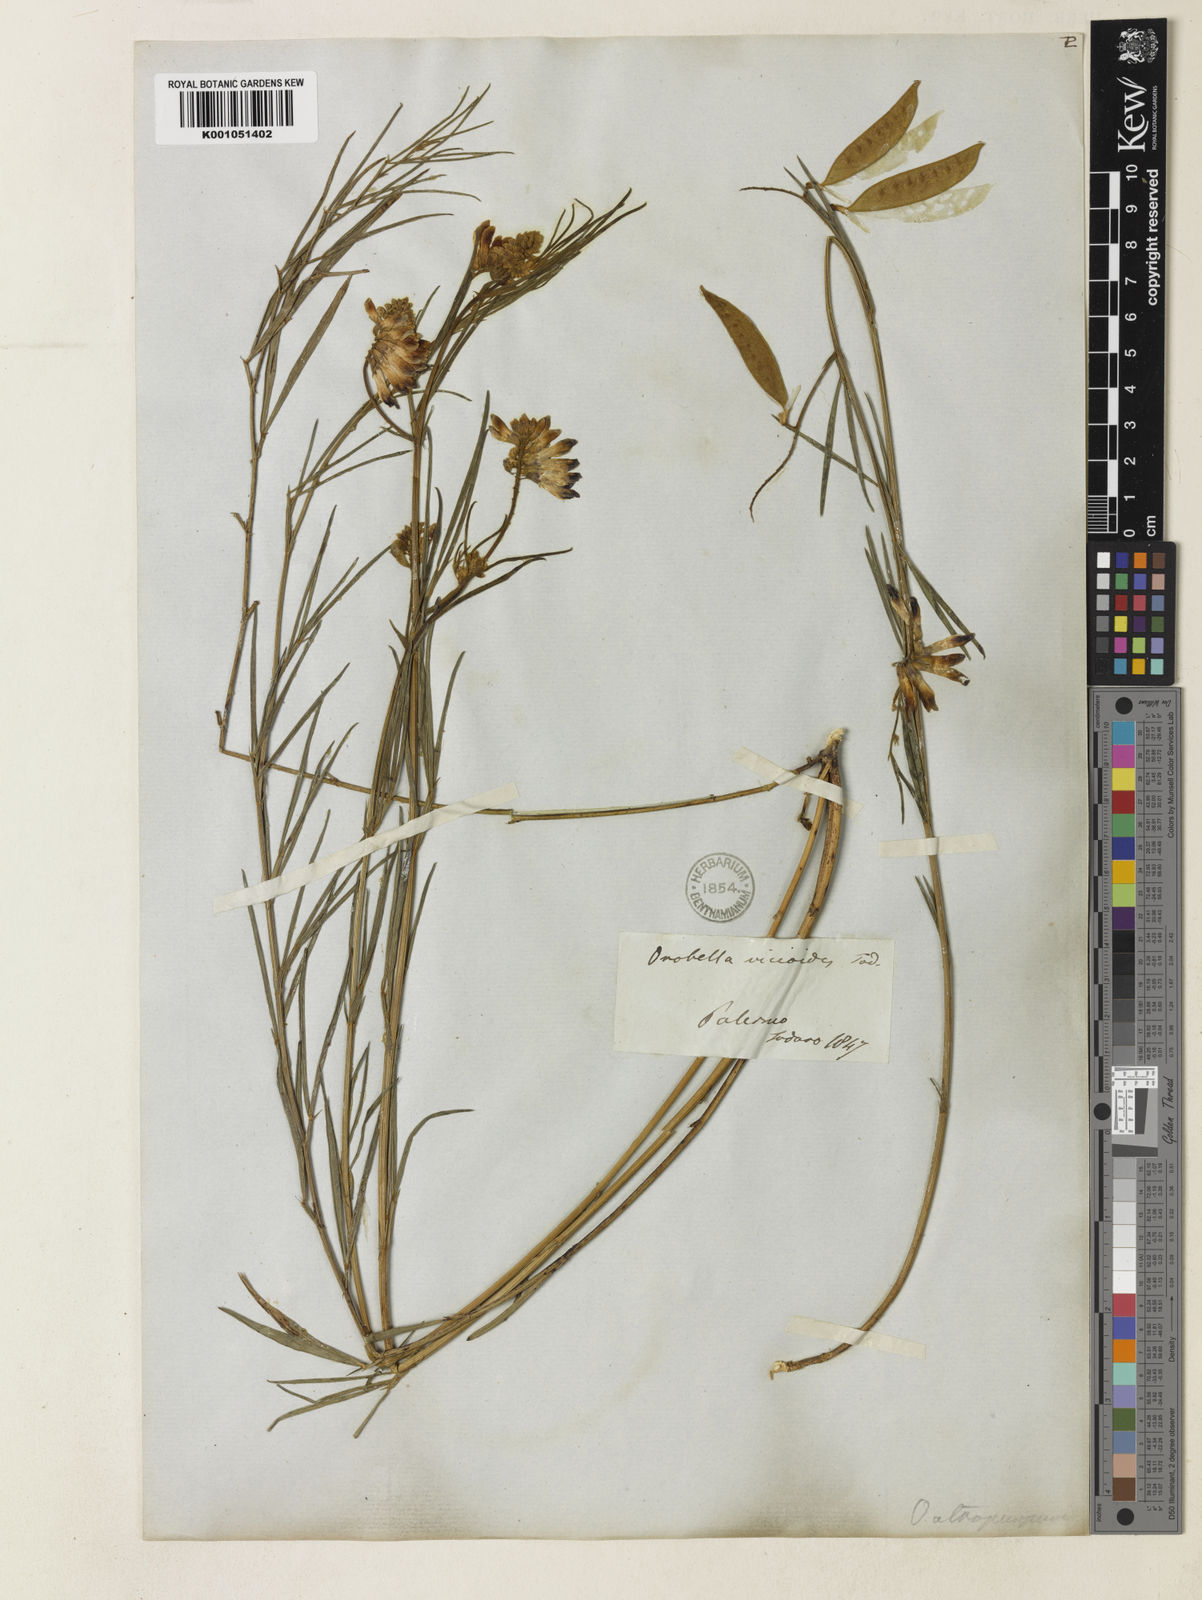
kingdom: Plantae
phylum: Tracheophyta
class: Magnoliopsida
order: Fabales
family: Fabaceae
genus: Vicia
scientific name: Vicia sicula
